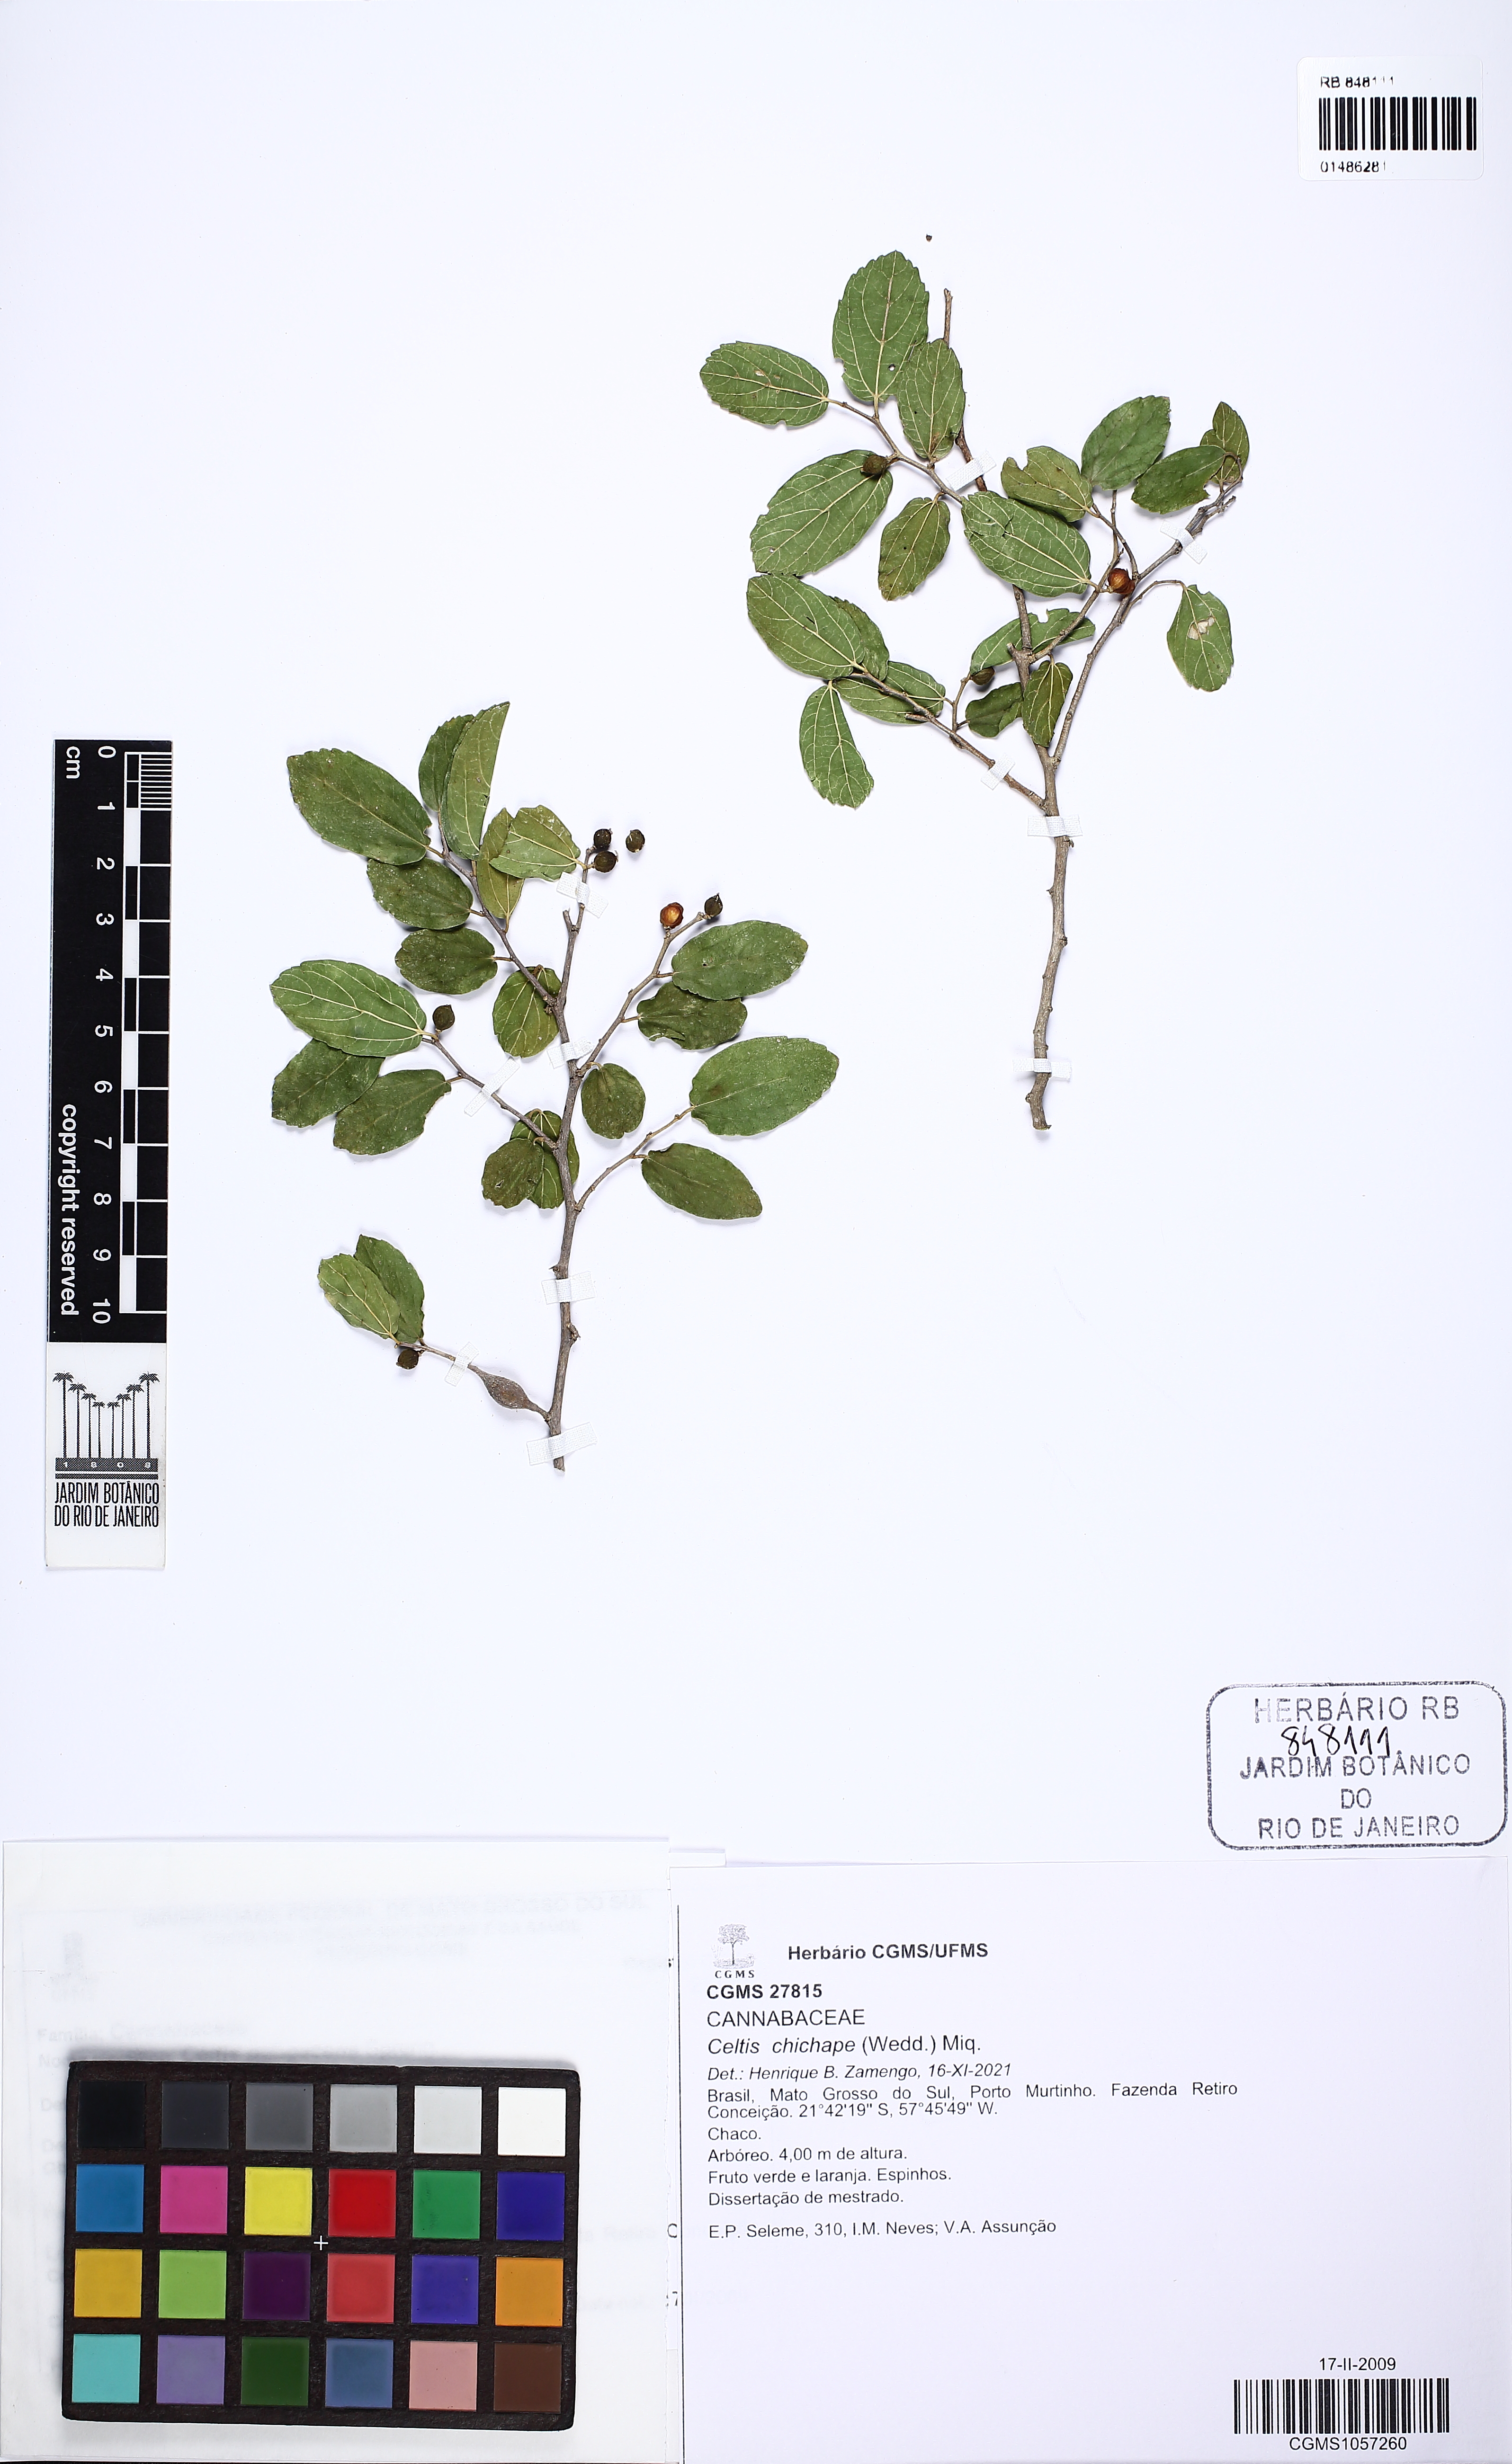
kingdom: Plantae
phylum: Tracheophyta
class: Magnoliopsida
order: Rosales
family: Cannabaceae
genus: Celtis
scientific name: Celtis chicape
